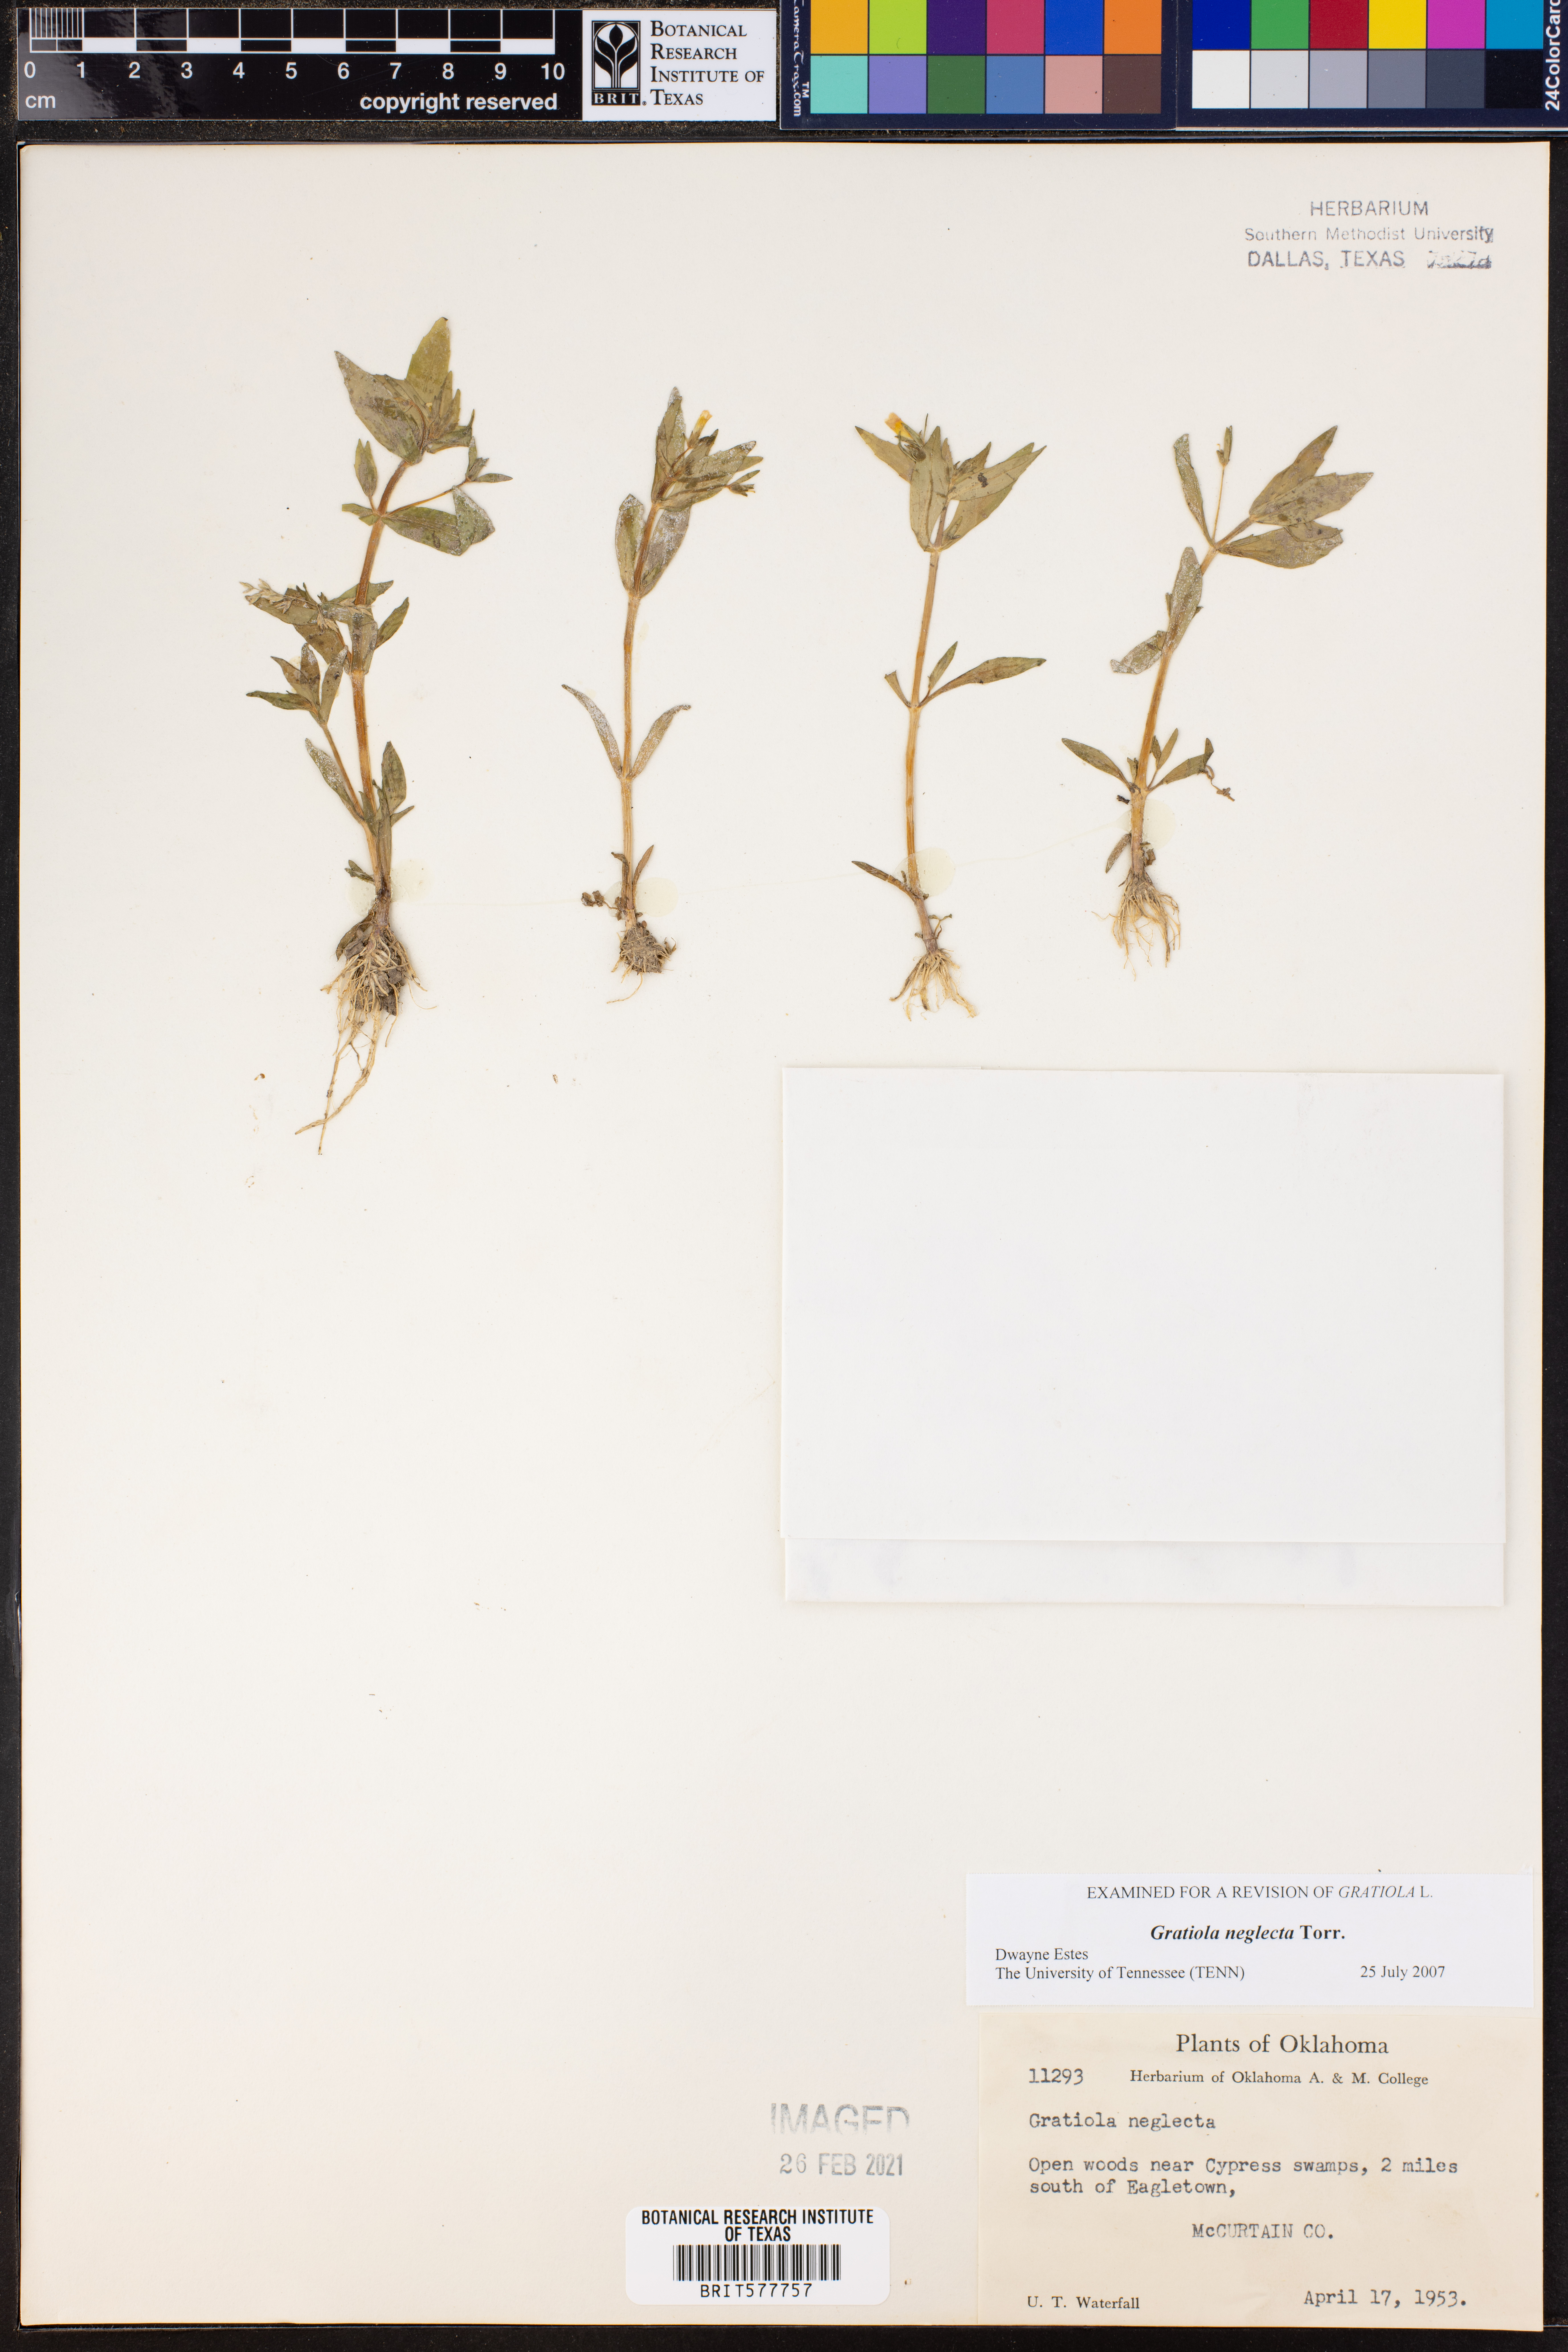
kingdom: Plantae
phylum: Tracheophyta
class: Magnoliopsida
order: Lamiales
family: Plantaginaceae
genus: Gratiola
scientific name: Gratiola neglecta
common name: American hedge-hyssop
